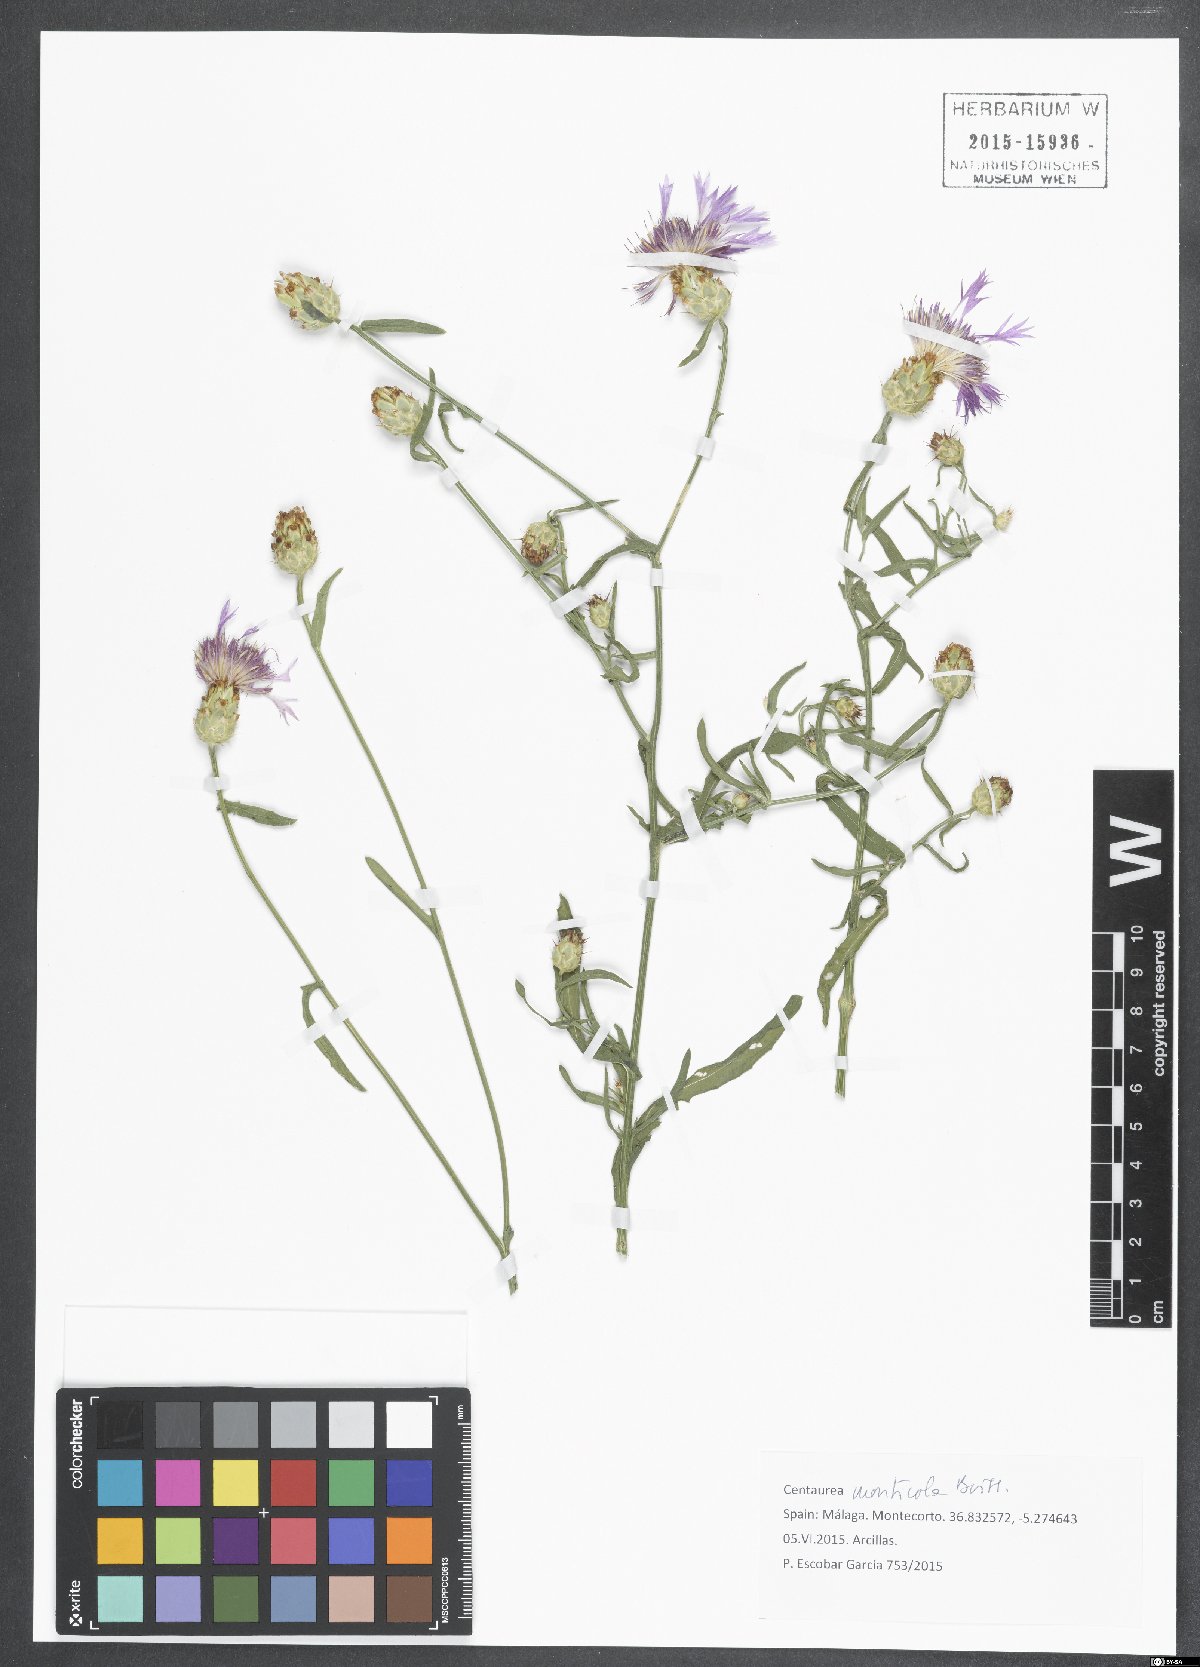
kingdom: Plantae
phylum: Tracheophyta
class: Magnoliopsida
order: Asterales
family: Asteraceae
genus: Centaurea
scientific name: Centaurea monticola
